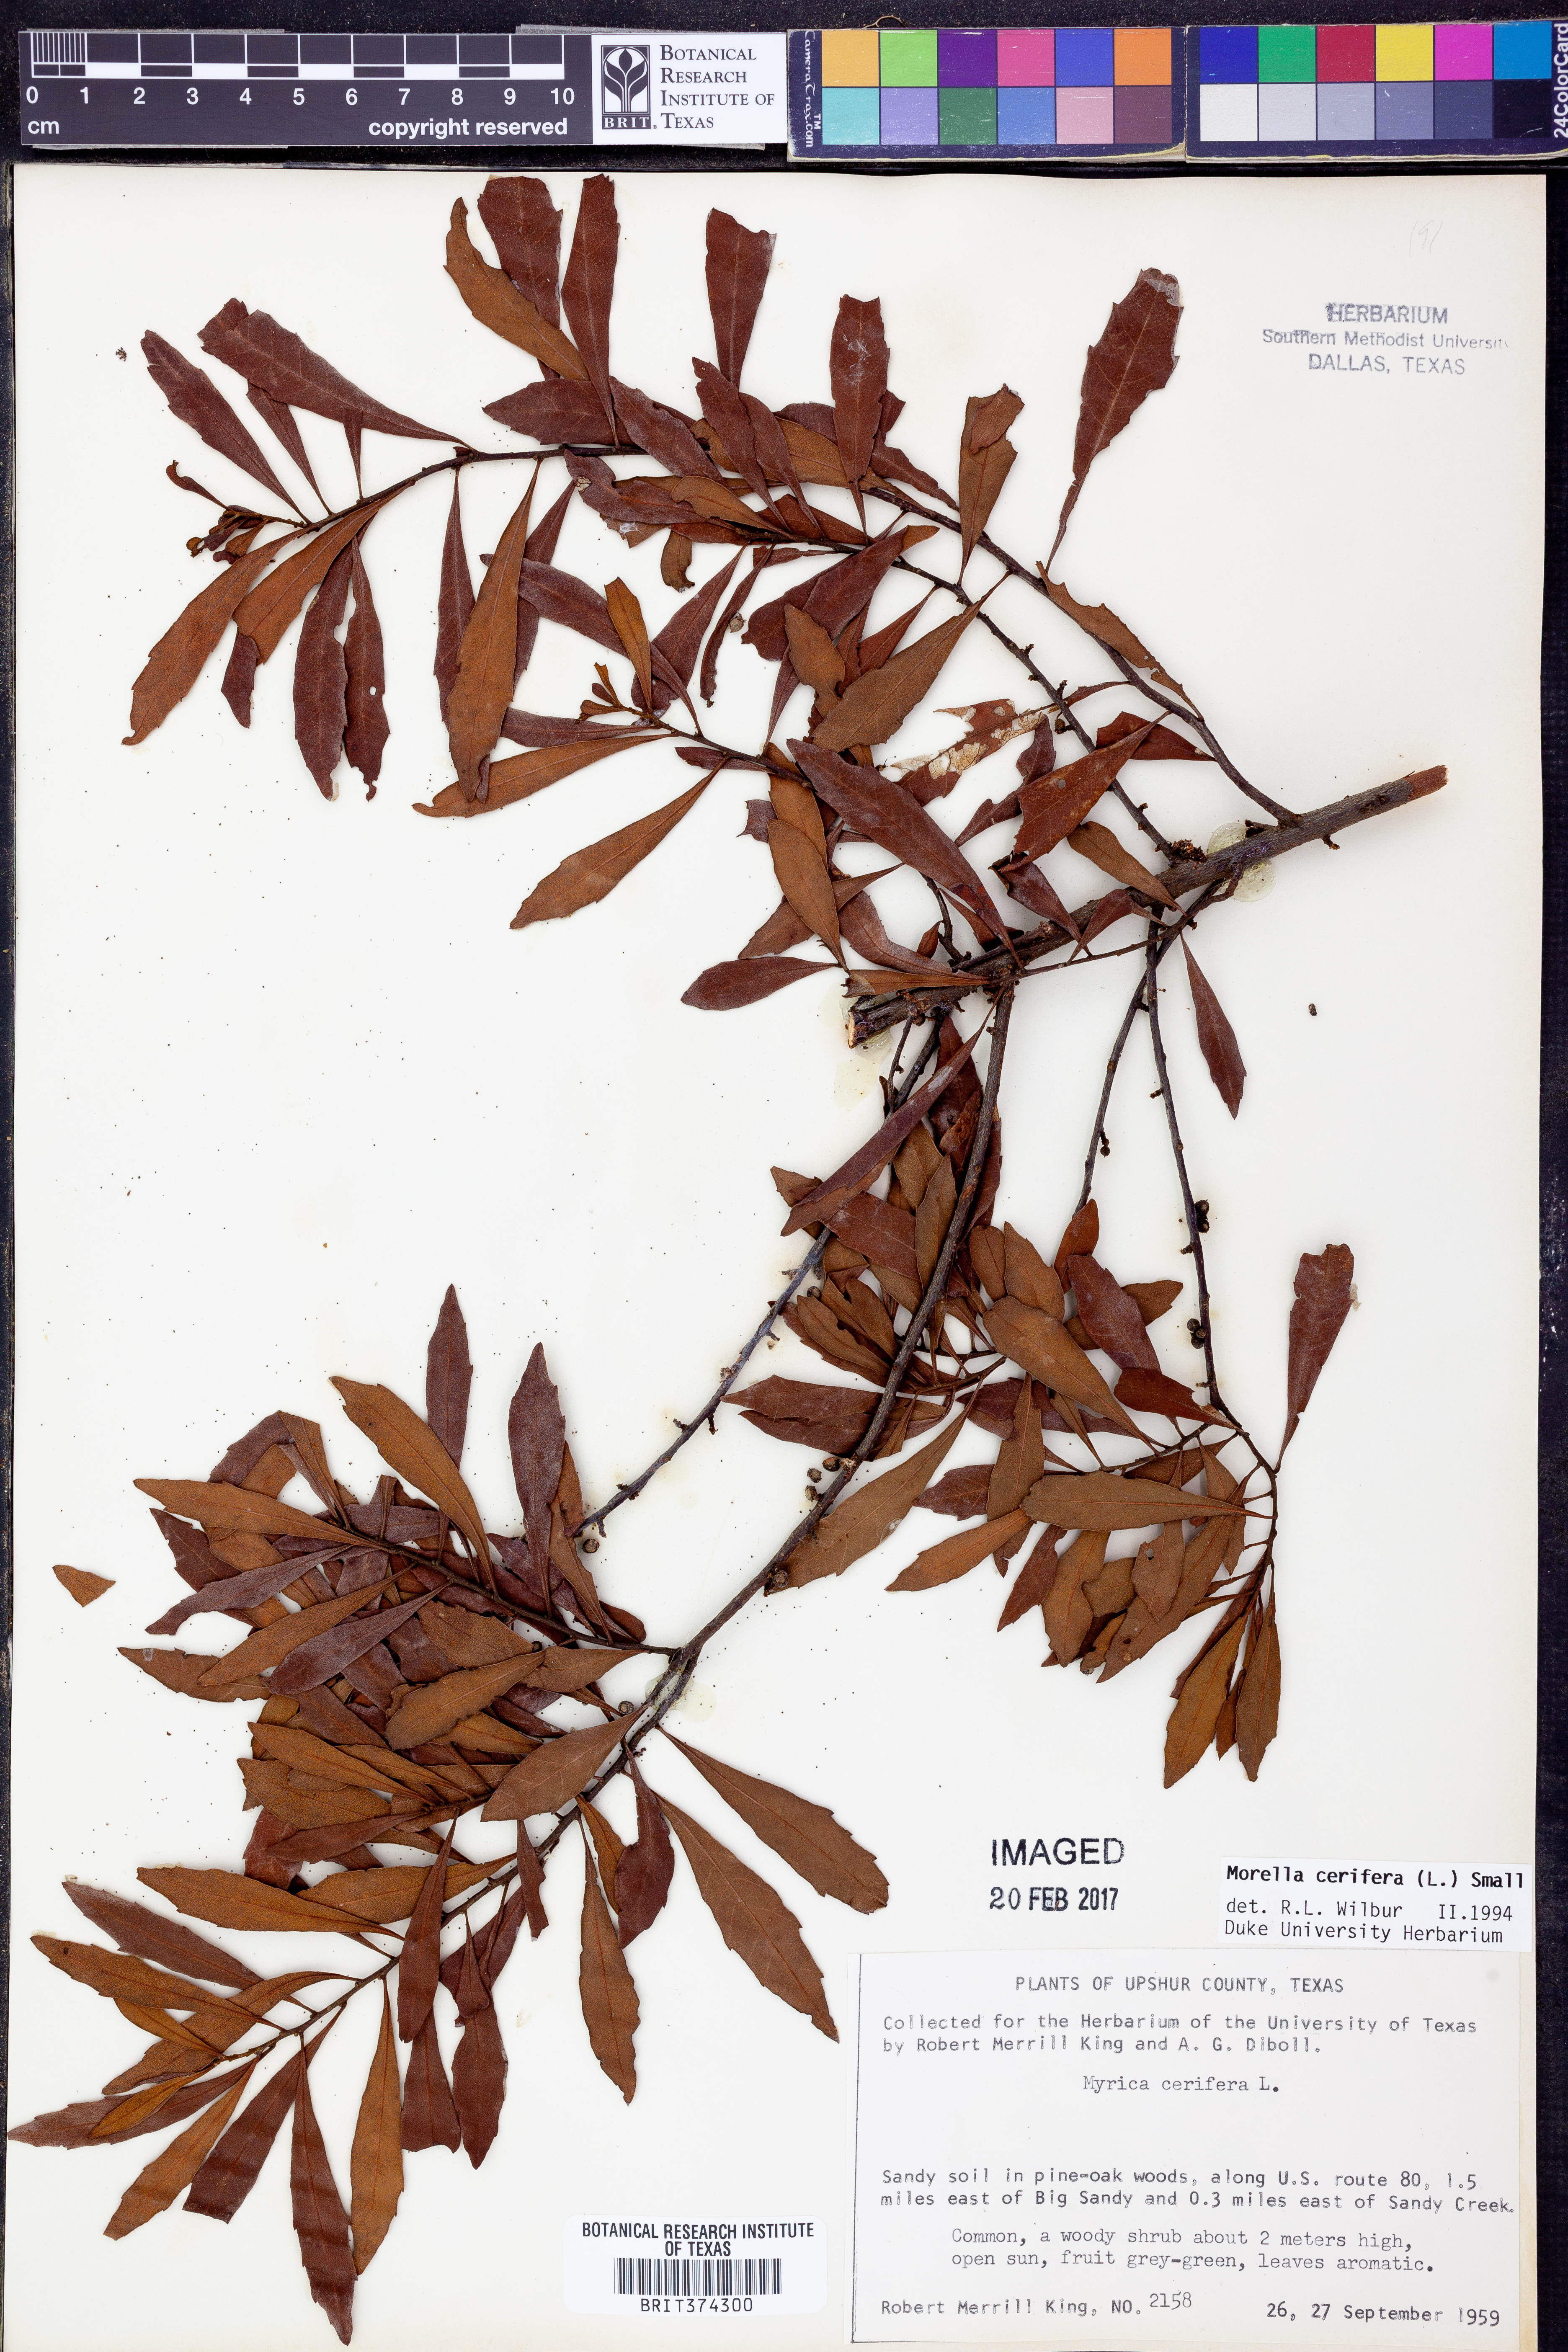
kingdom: Plantae
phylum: Tracheophyta
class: Magnoliopsida
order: Fagales
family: Myricaceae
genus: Morella
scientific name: Morella cerifera
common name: Wax myrtle
